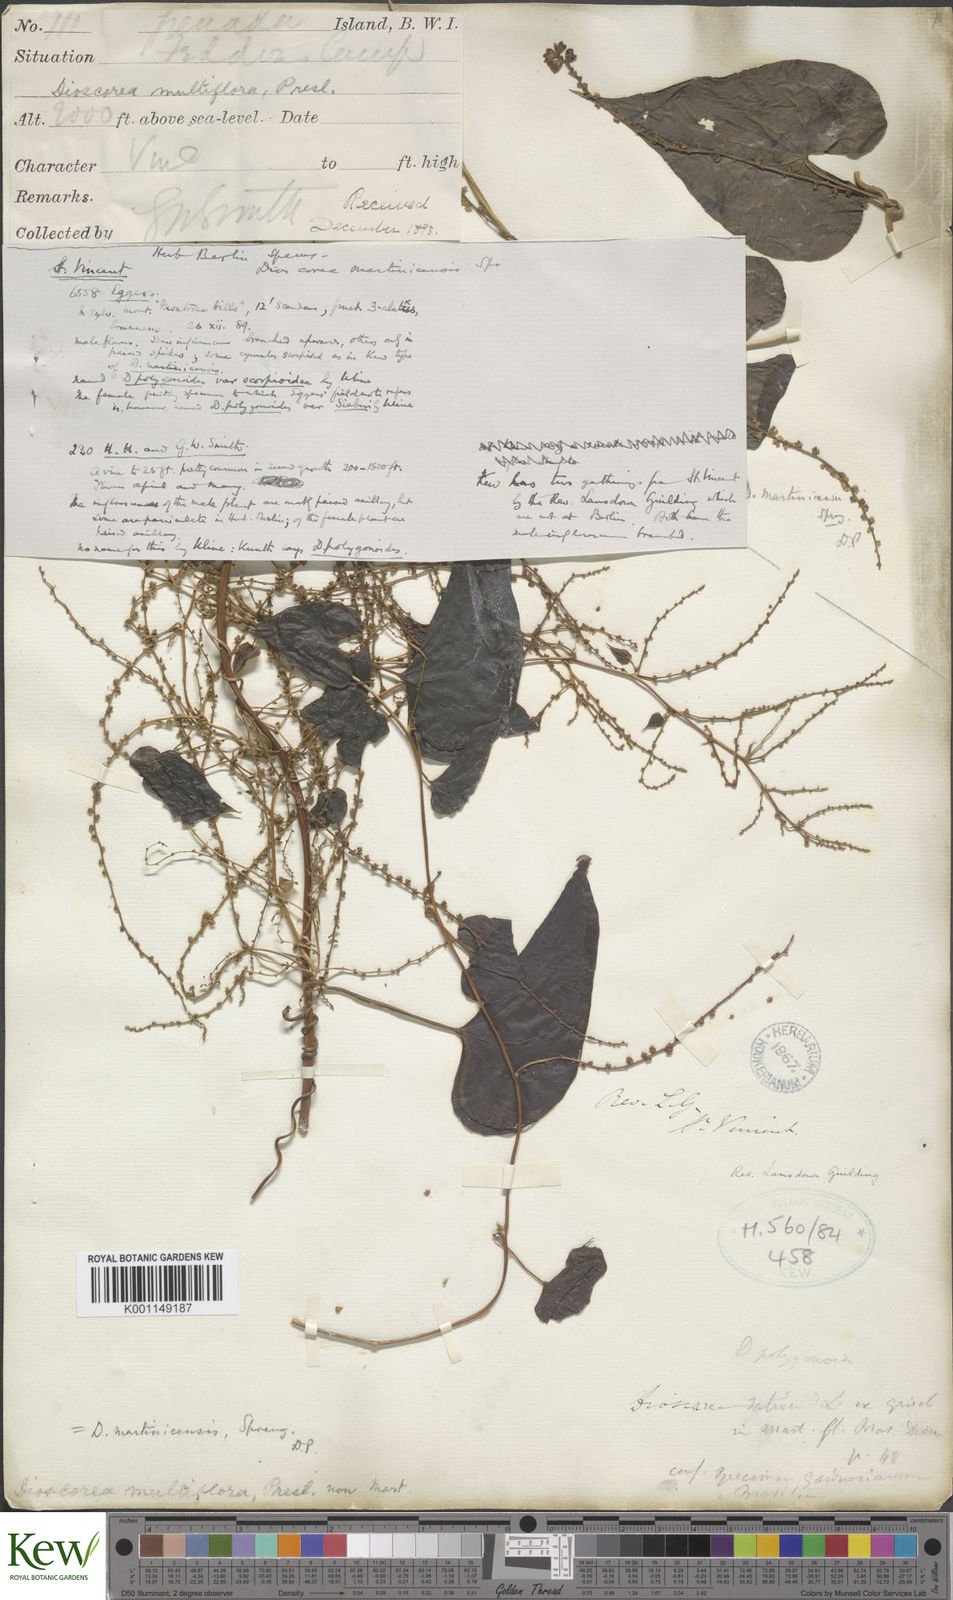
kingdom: Plantae
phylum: Tracheophyta
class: Liliopsida
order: Dioscoreales
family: Dioscoreaceae
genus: Dioscorea
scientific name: Dioscorea polygonoides
